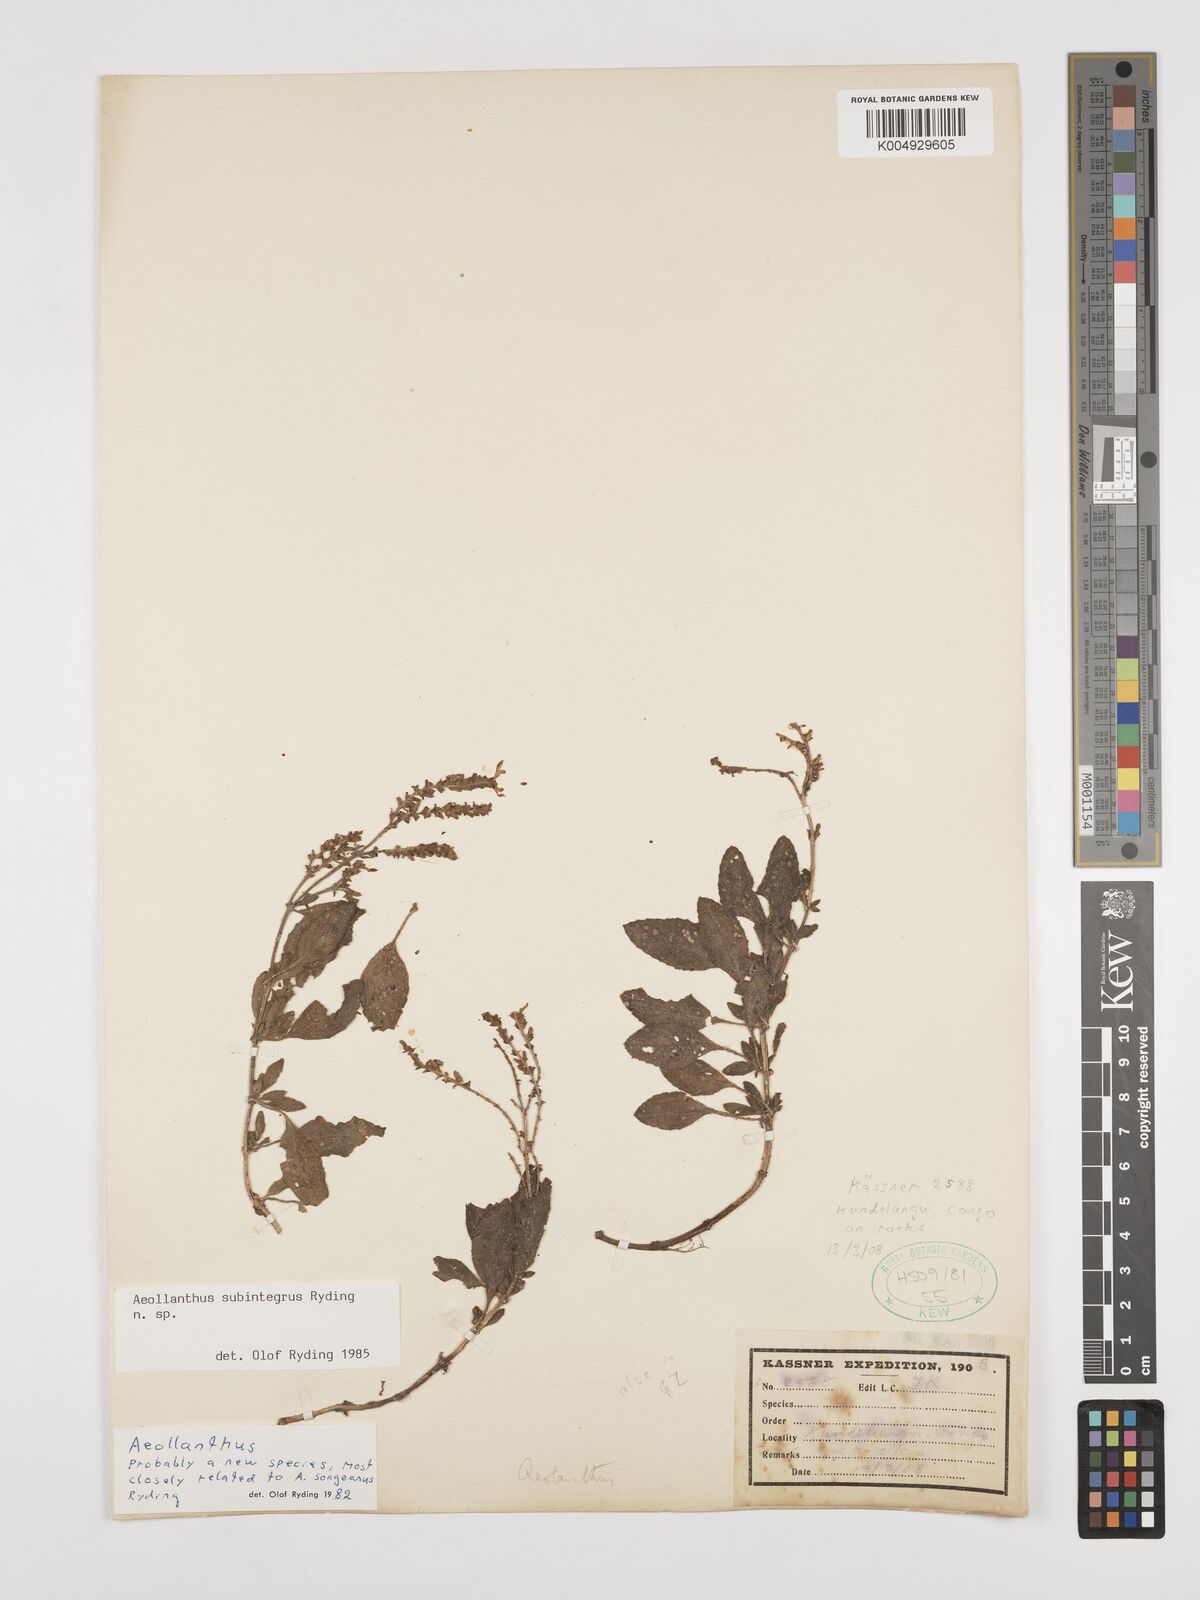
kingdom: Plantae
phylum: Tracheophyta
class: Magnoliopsida
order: Lamiales
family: Lamiaceae
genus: Aeollanthus
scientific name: Aeollanthus subintegrus
